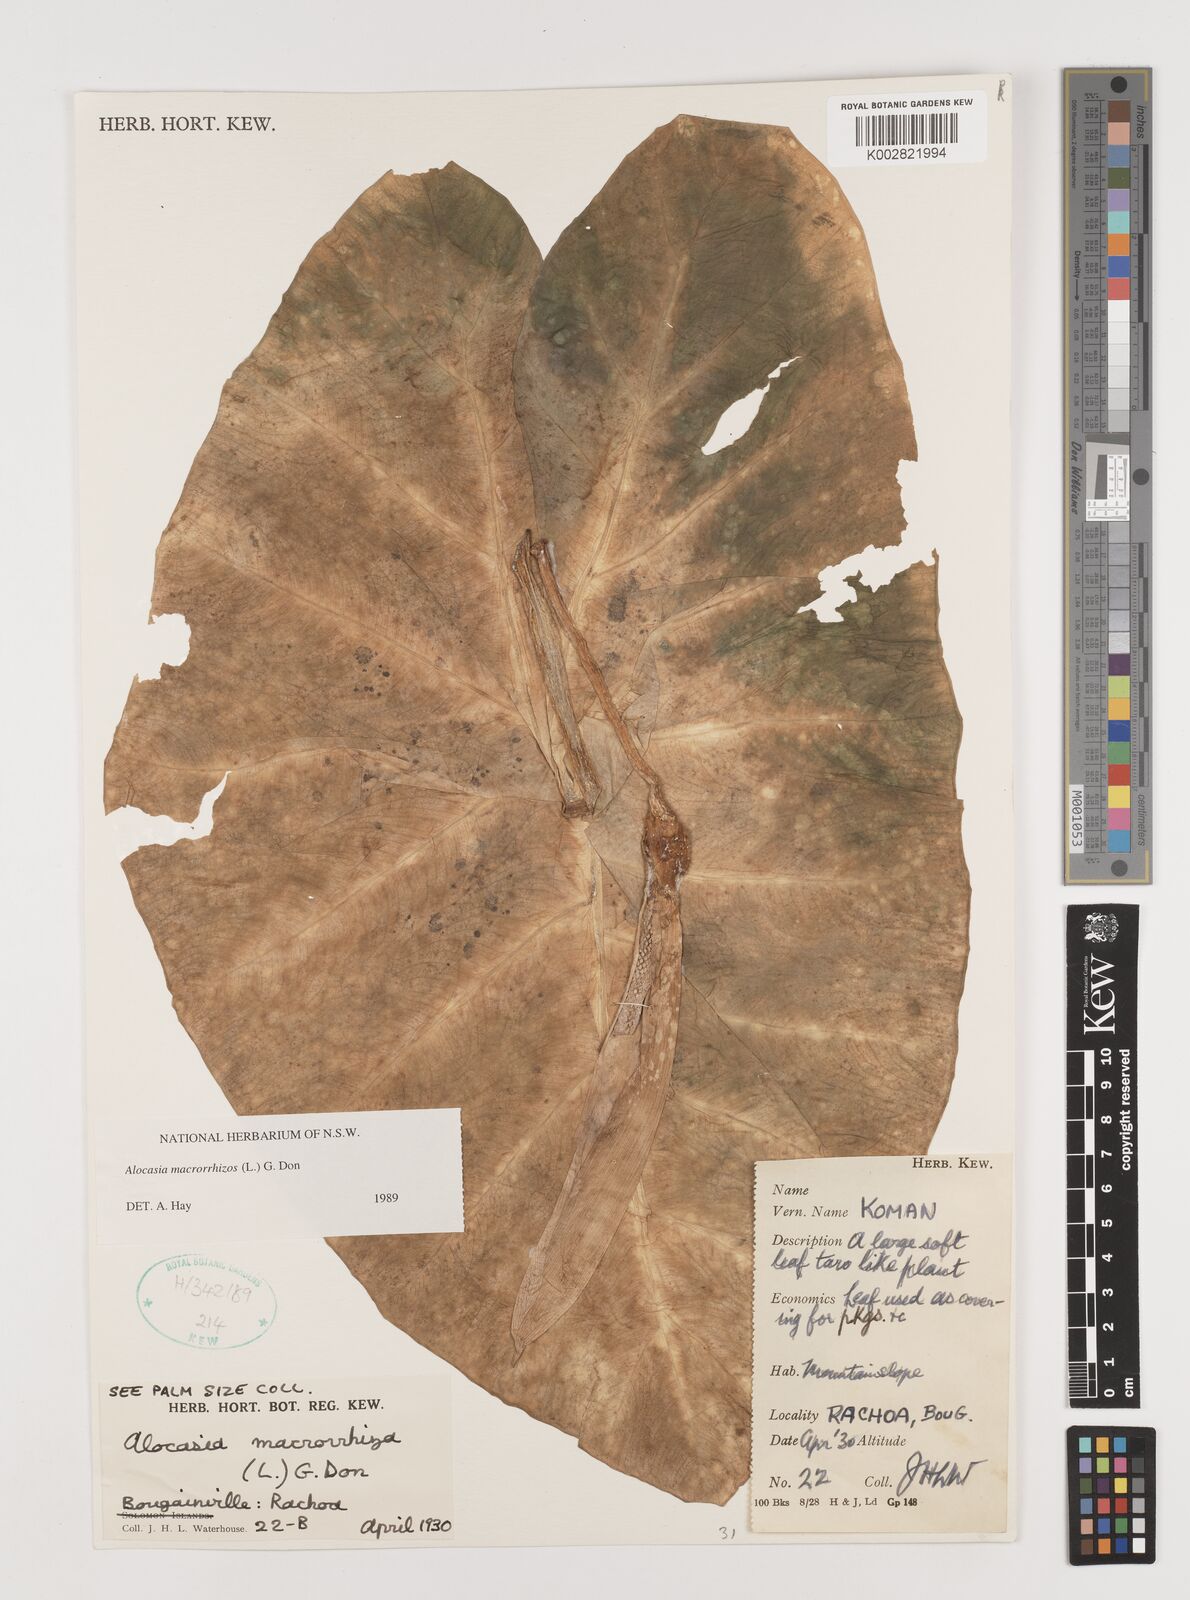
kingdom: Plantae
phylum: Tracheophyta
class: Liliopsida
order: Alismatales
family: Araceae
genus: Alocasia
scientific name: Alocasia macrorrhizos
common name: Giant taro
